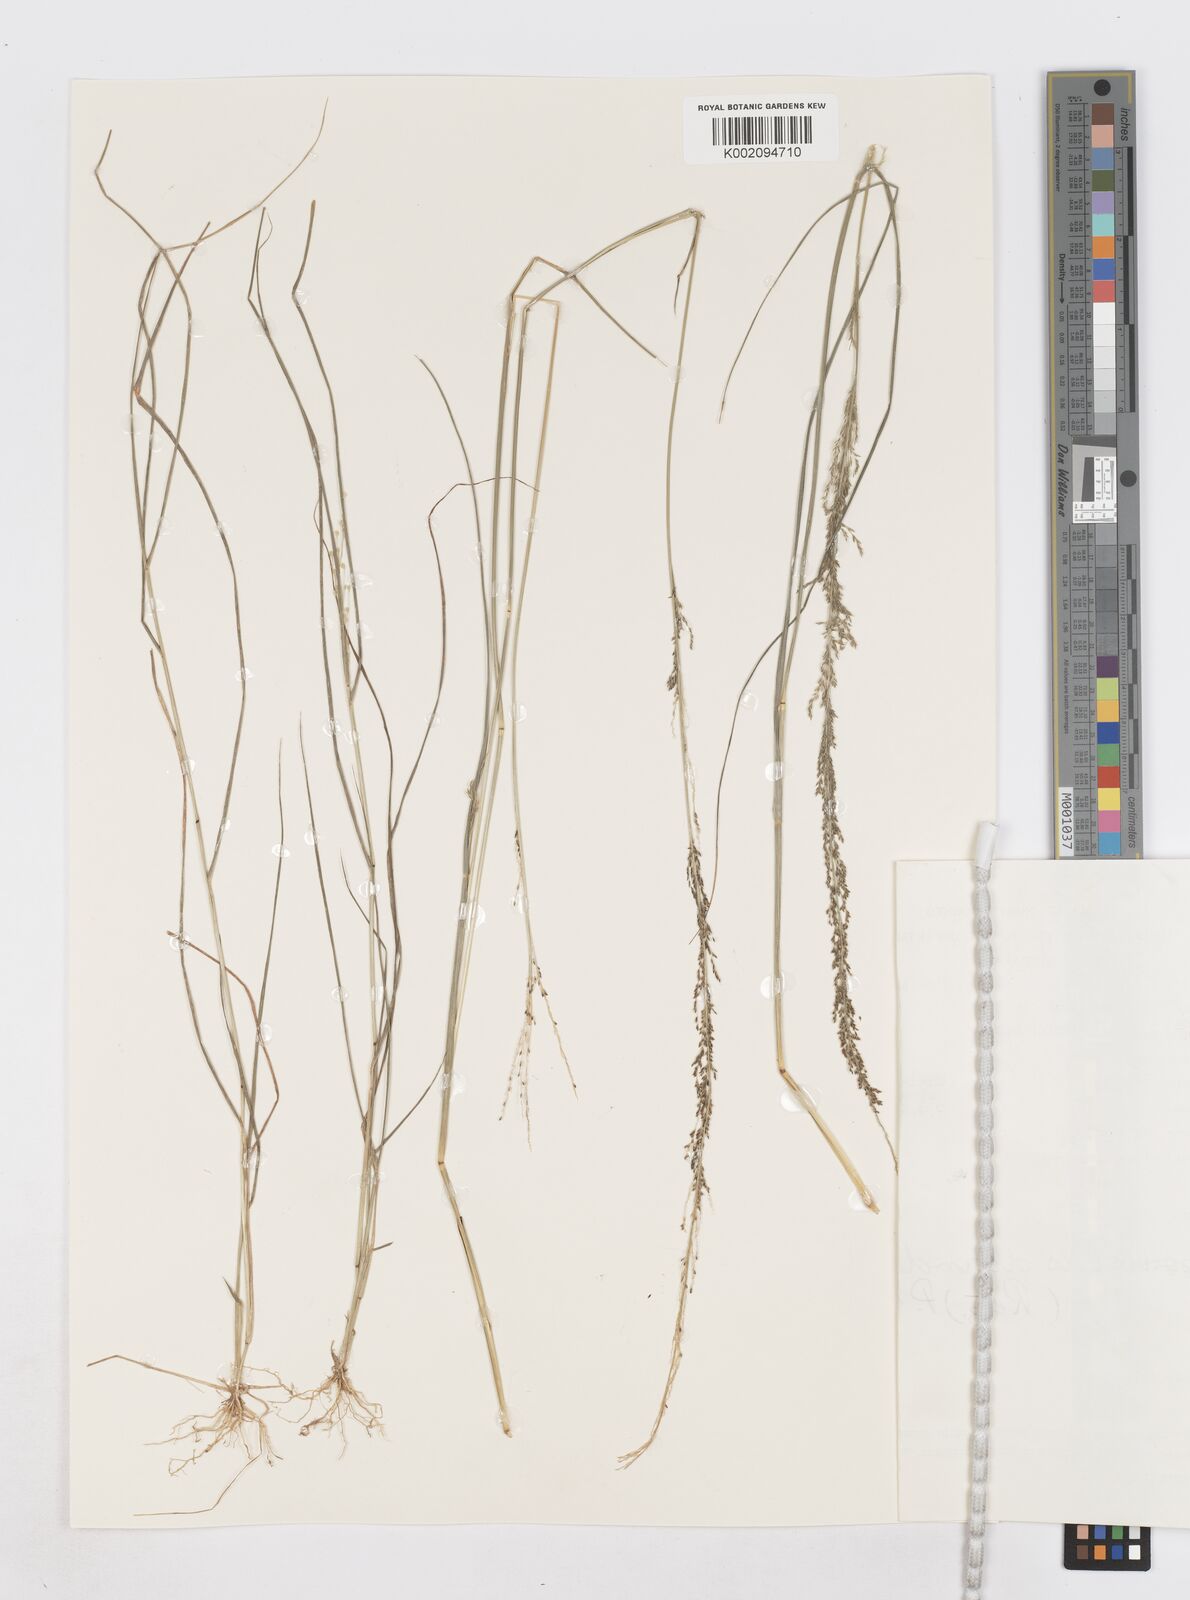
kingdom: Plantae
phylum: Tracheophyta
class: Liliopsida
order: Poales
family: Poaceae
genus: Sporobolus
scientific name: Sporobolus diandrus
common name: Tussock dropseed
